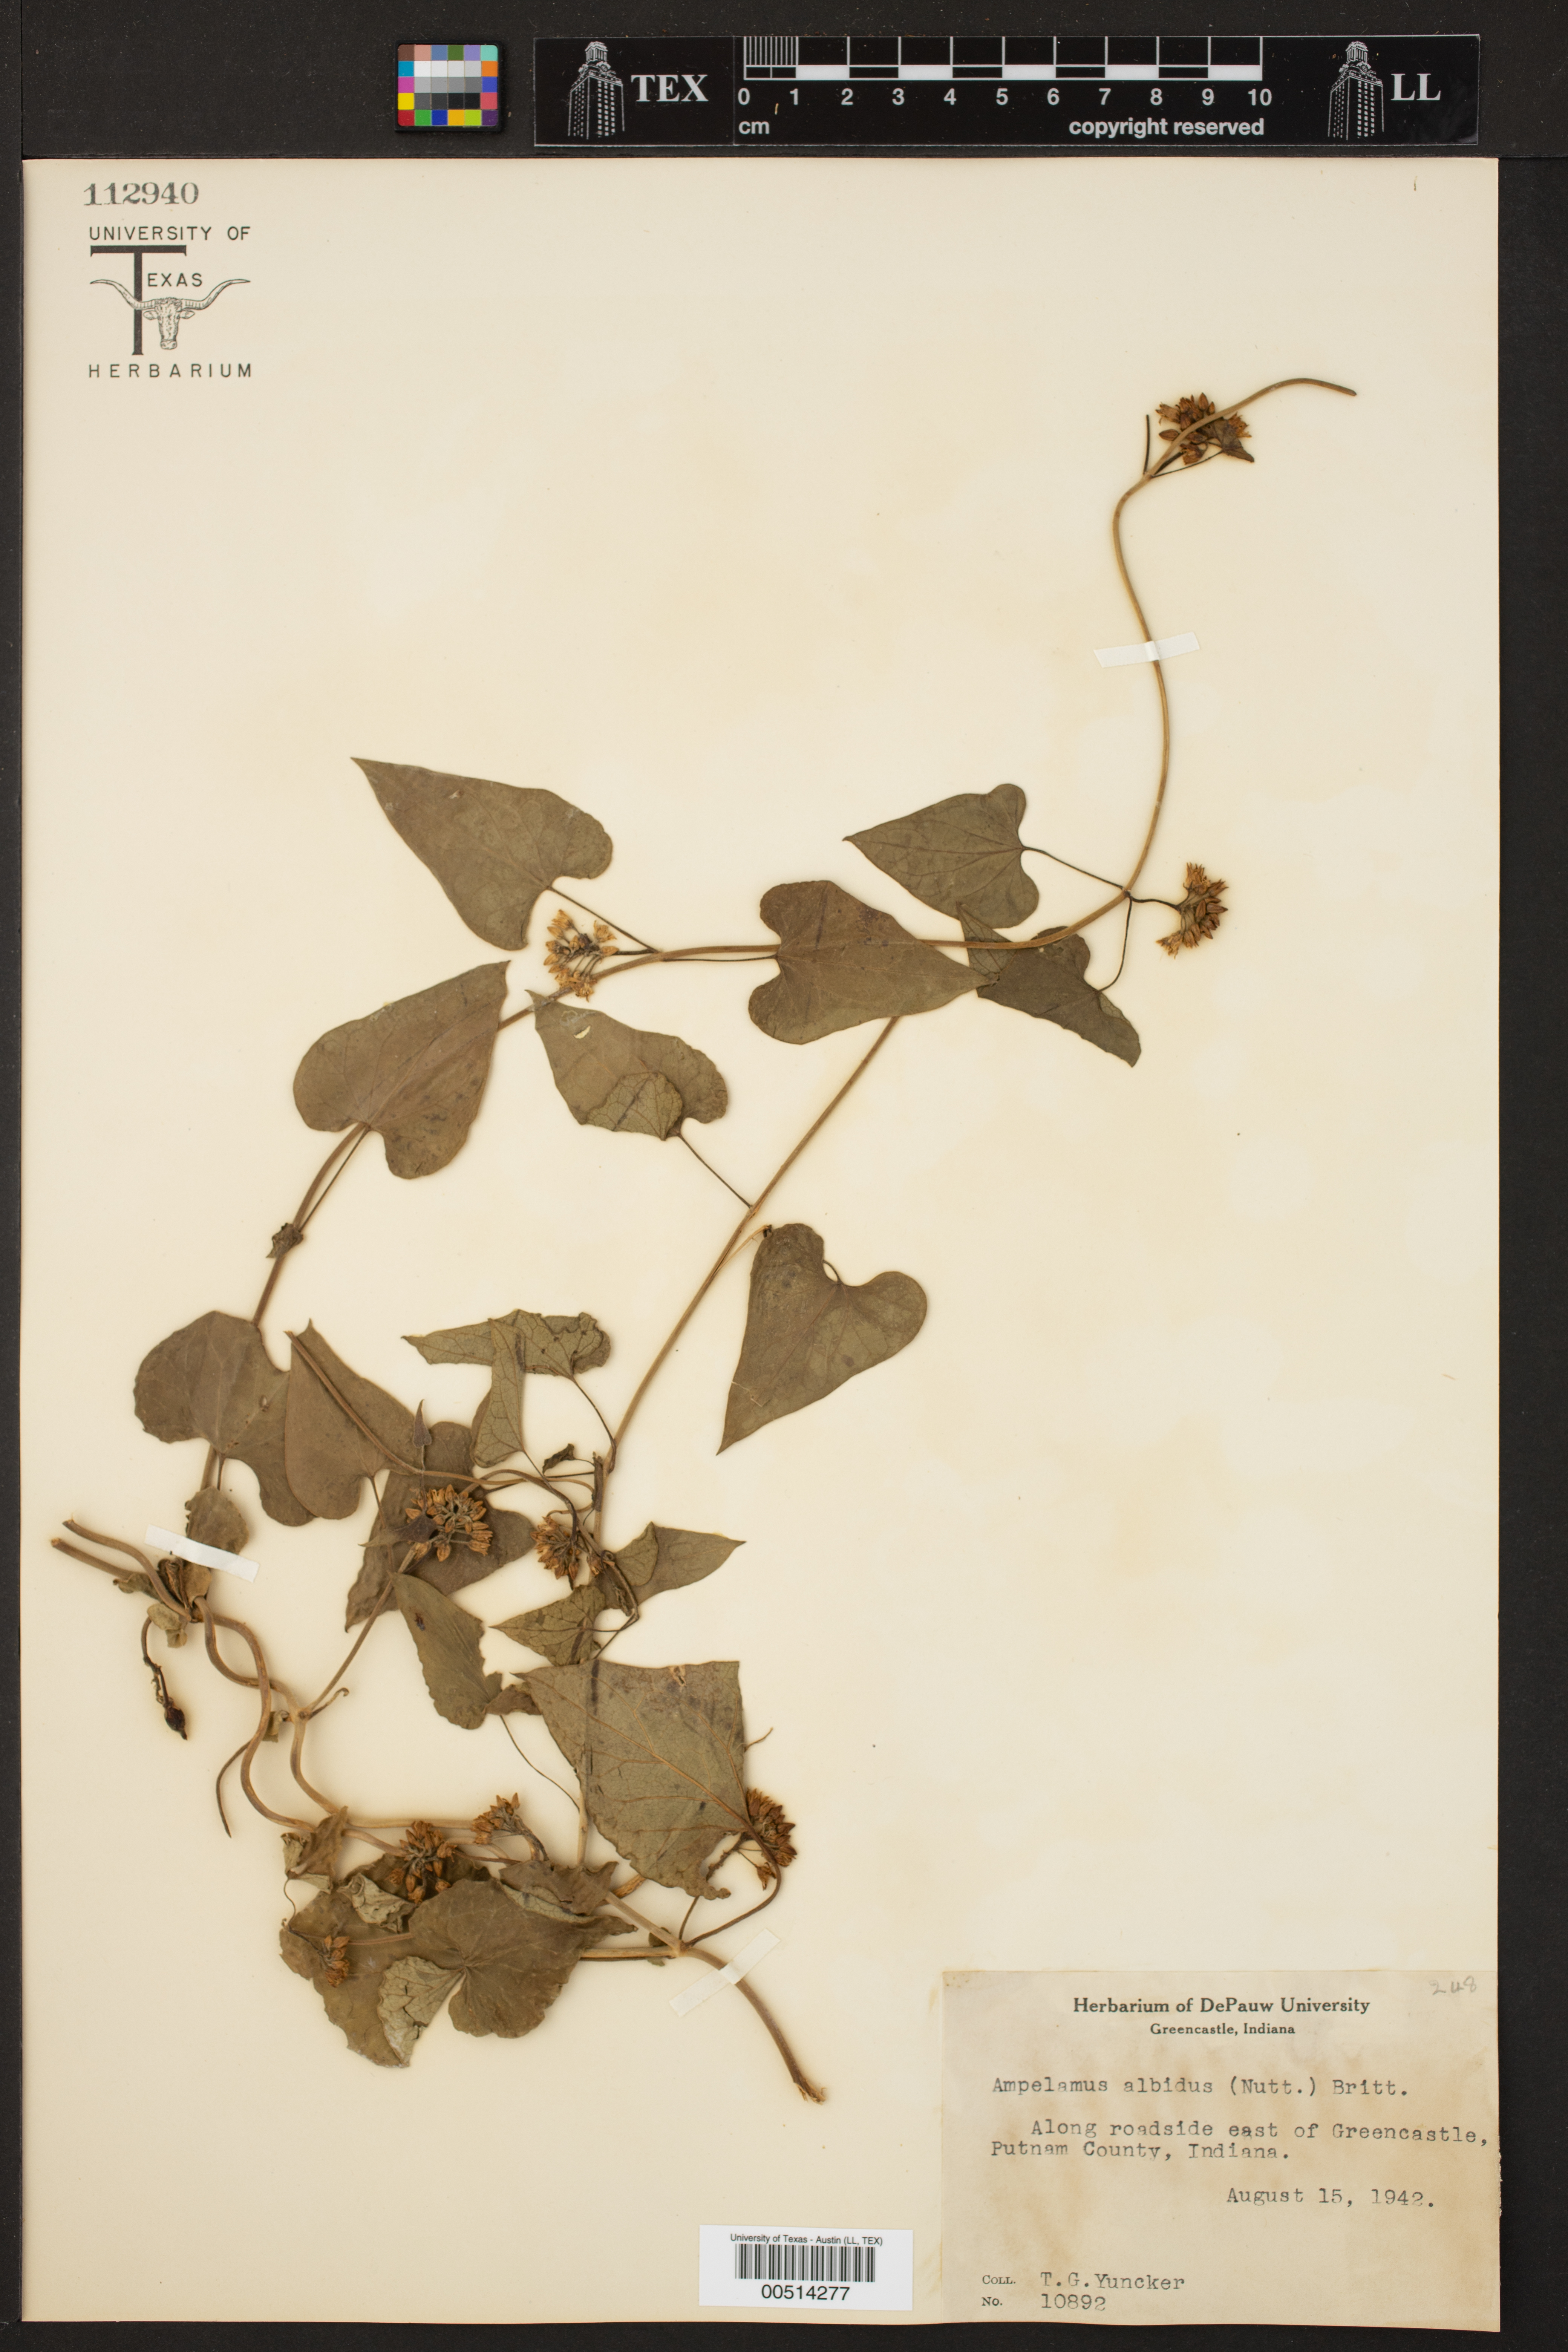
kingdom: Plantae
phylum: Tracheophyta
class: Magnoliopsida
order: Gentianales
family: Apocynaceae
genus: Cynanchum
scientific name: Cynanchum laeve
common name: Sandvine
